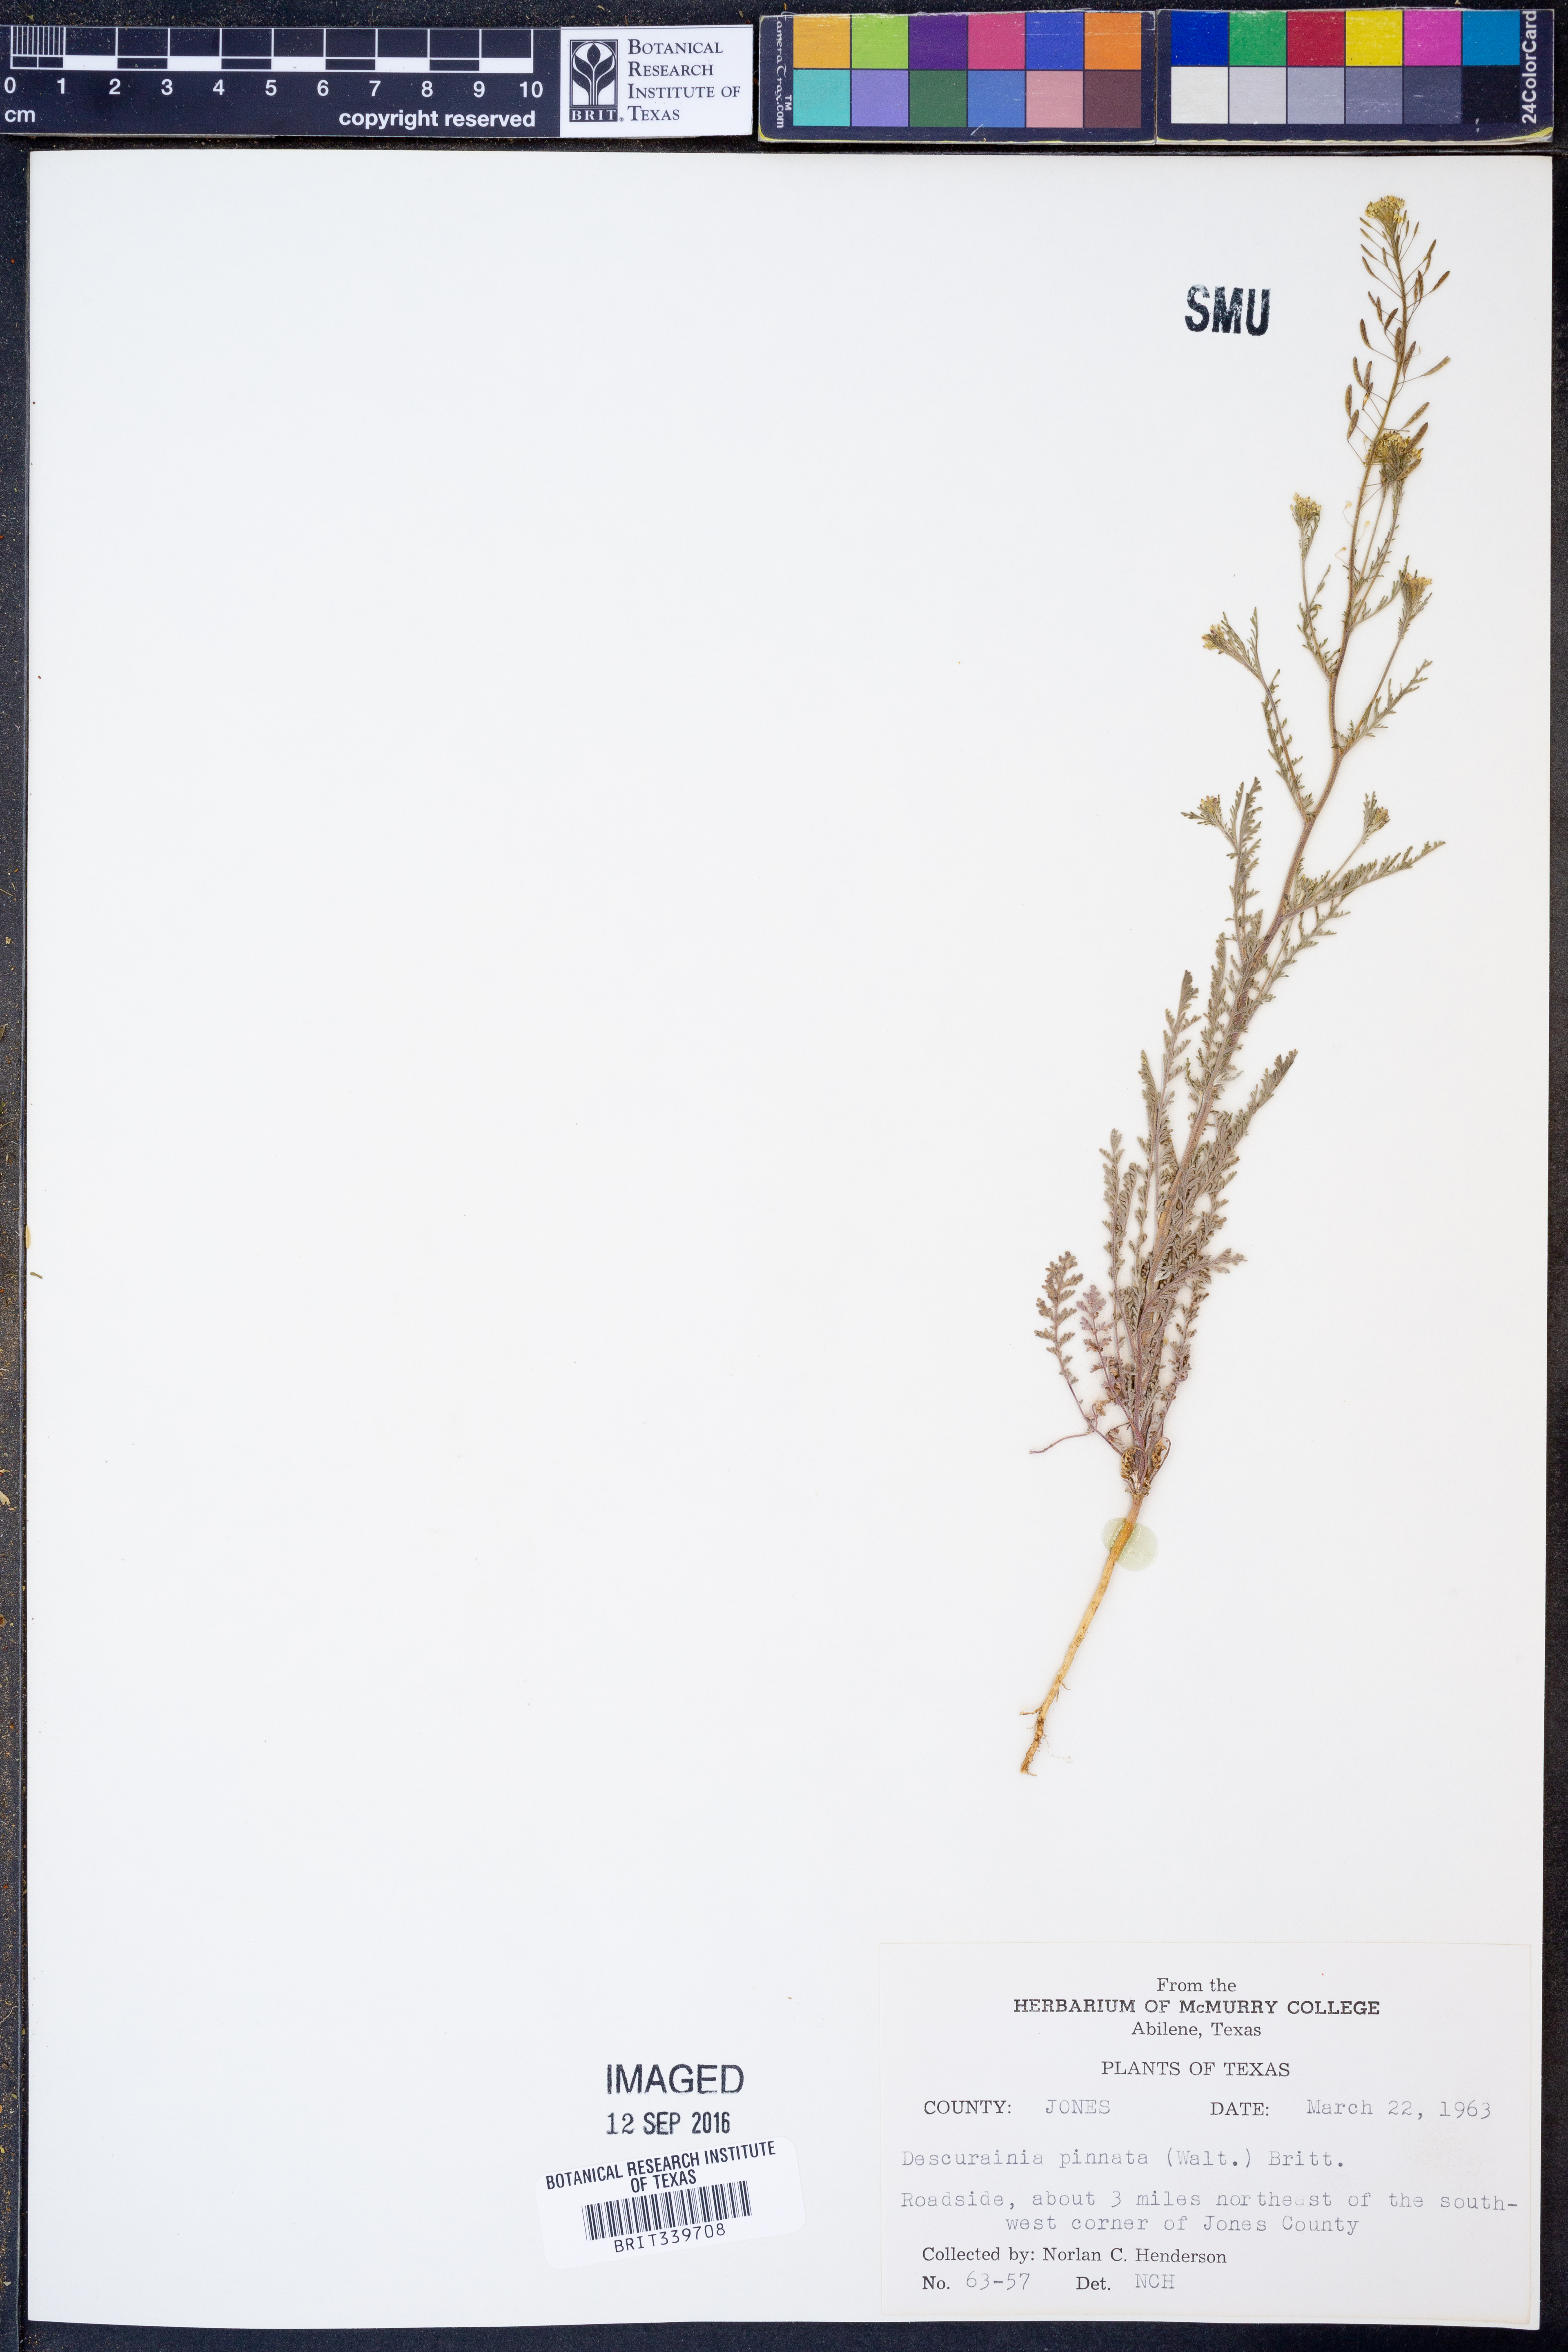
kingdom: Plantae
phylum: Tracheophyta
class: Magnoliopsida
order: Brassicales
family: Brassicaceae
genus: Descurainia
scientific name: Descurainia pinnata
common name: Western tansy mustard
